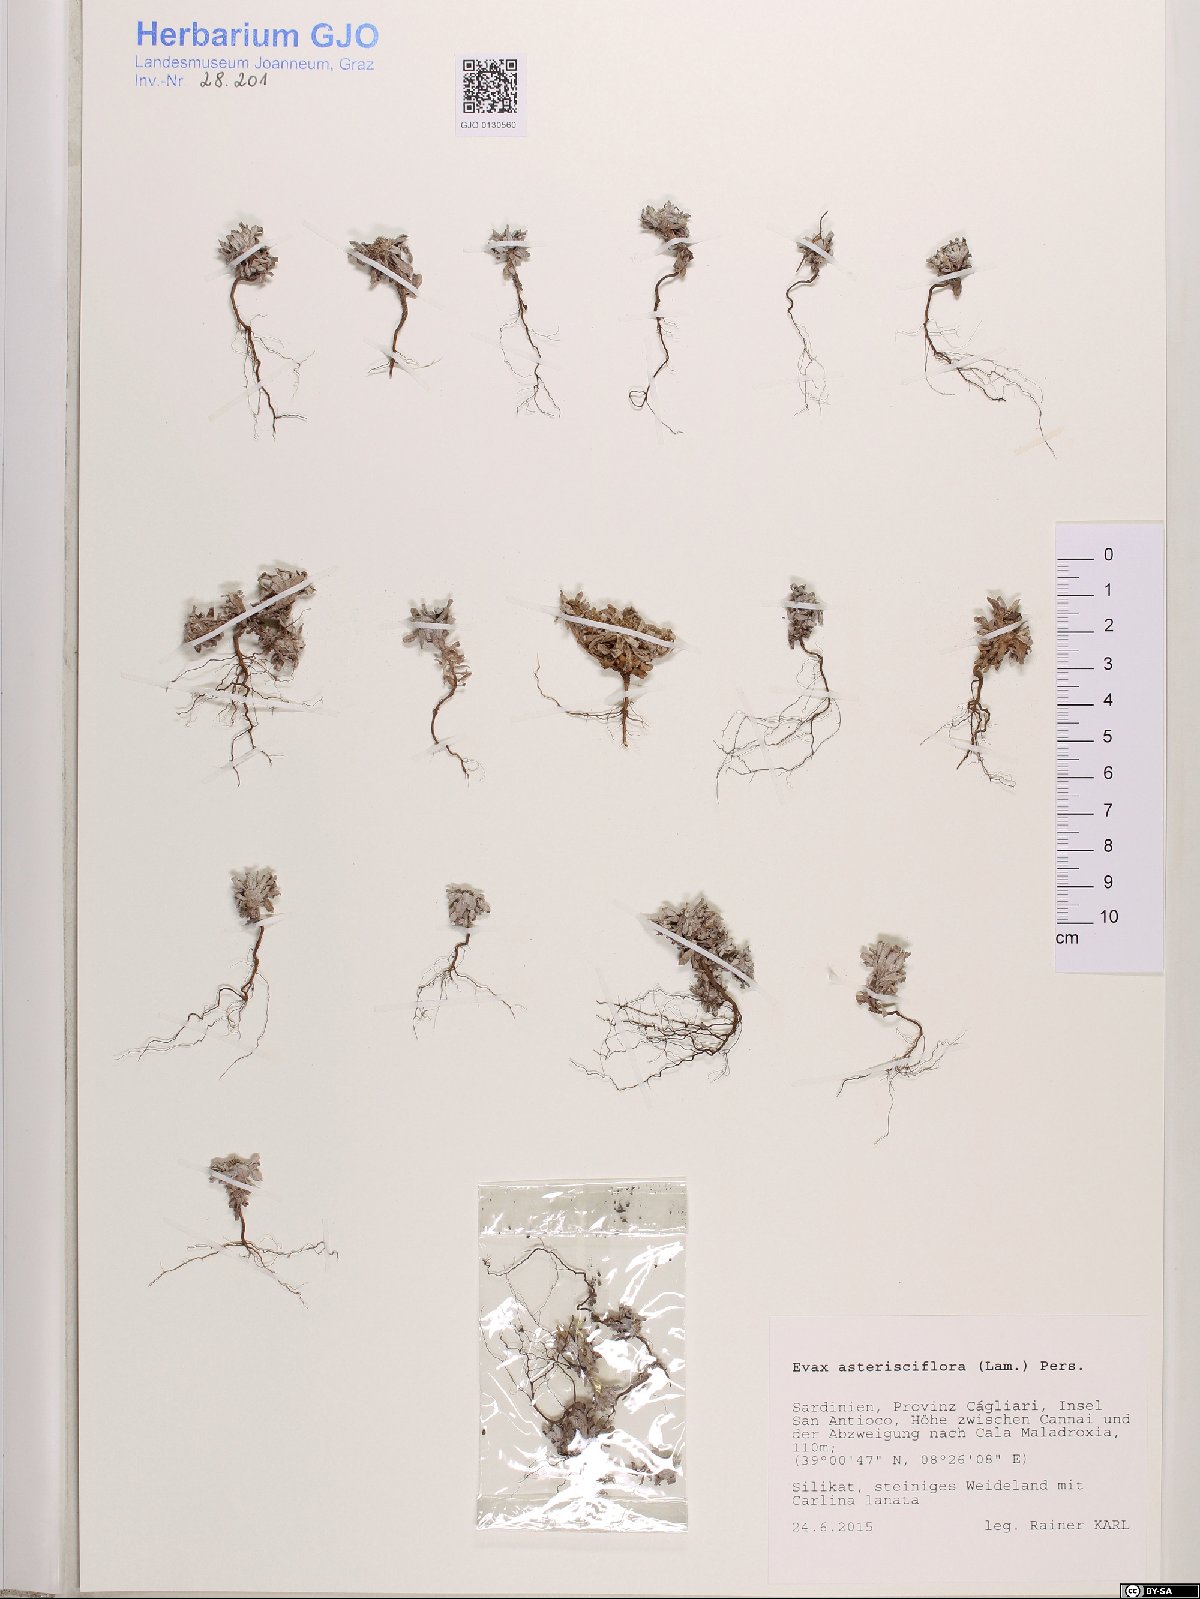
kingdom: Plantae
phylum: Tracheophyta
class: Magnoliopsida
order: Asterales
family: Asteraceae
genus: Filago
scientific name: Filago asterisciflora
